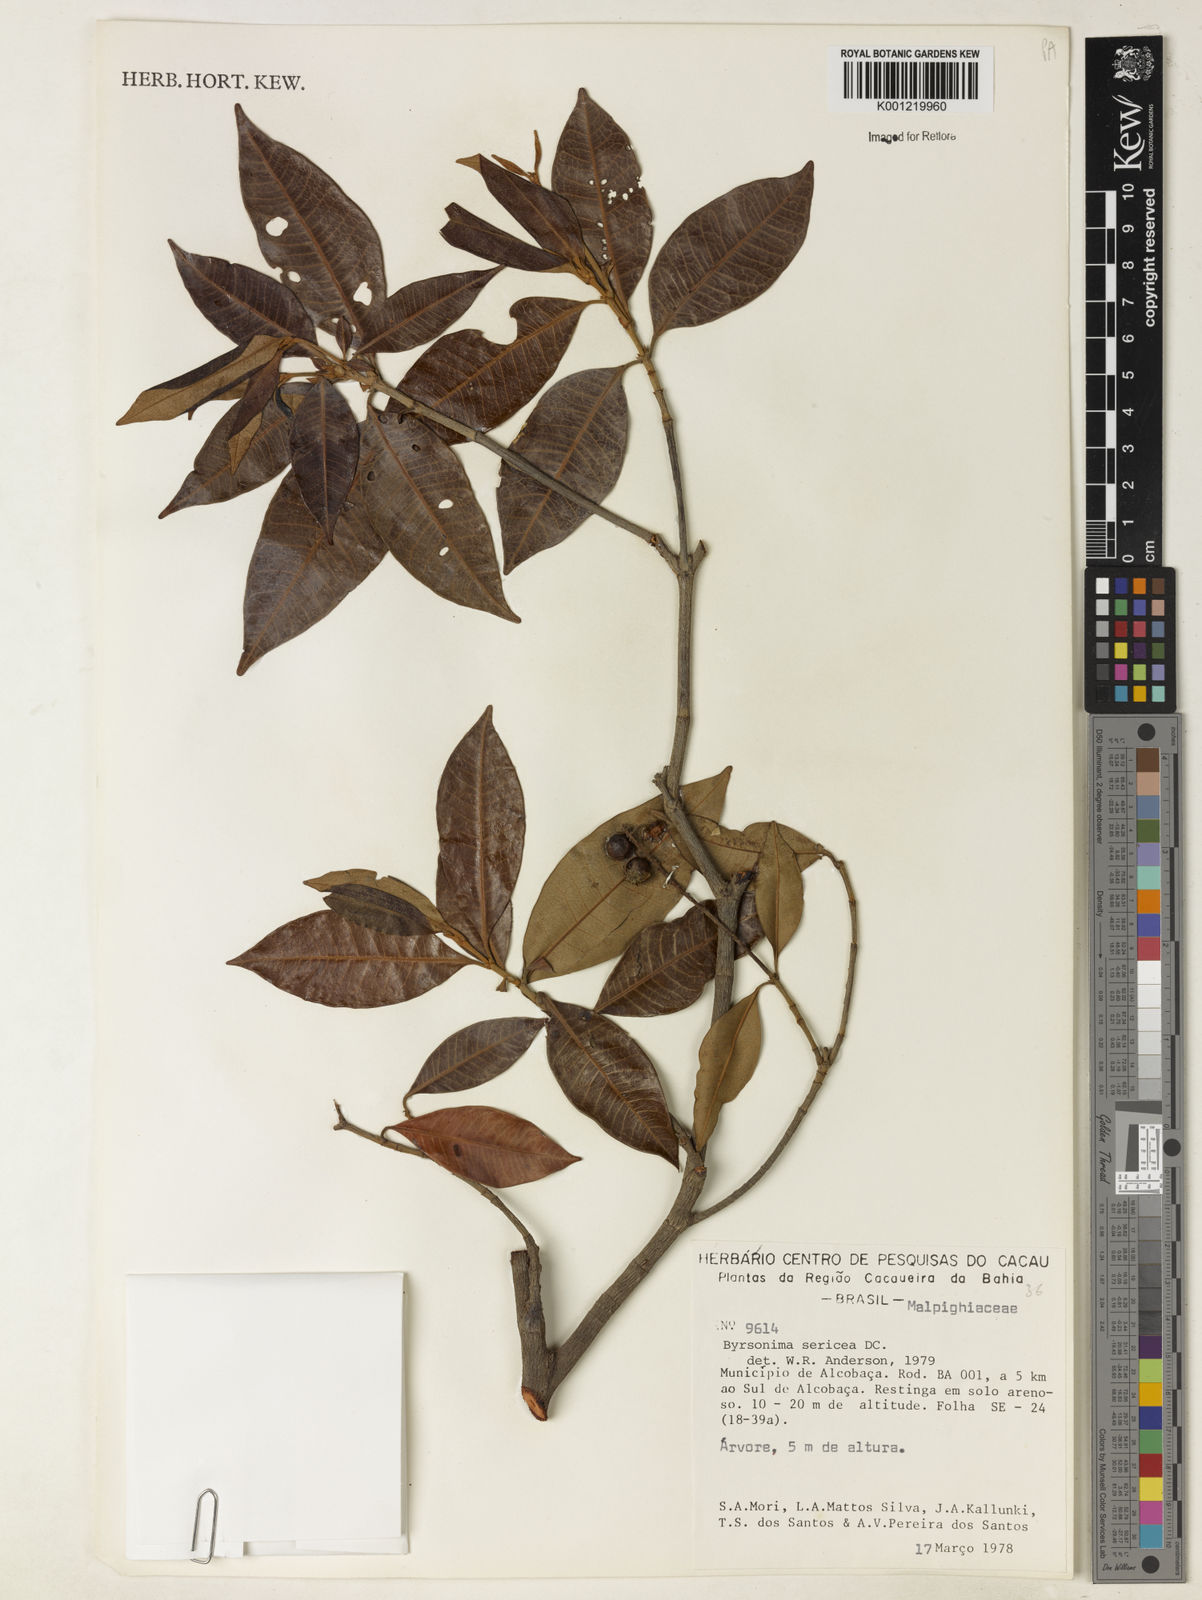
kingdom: Plantae
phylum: Tracheophyta
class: Magnoliopsida
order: Malpighiales
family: Malpighiaceae
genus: Byrsonima
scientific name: Byrsonima sericea
